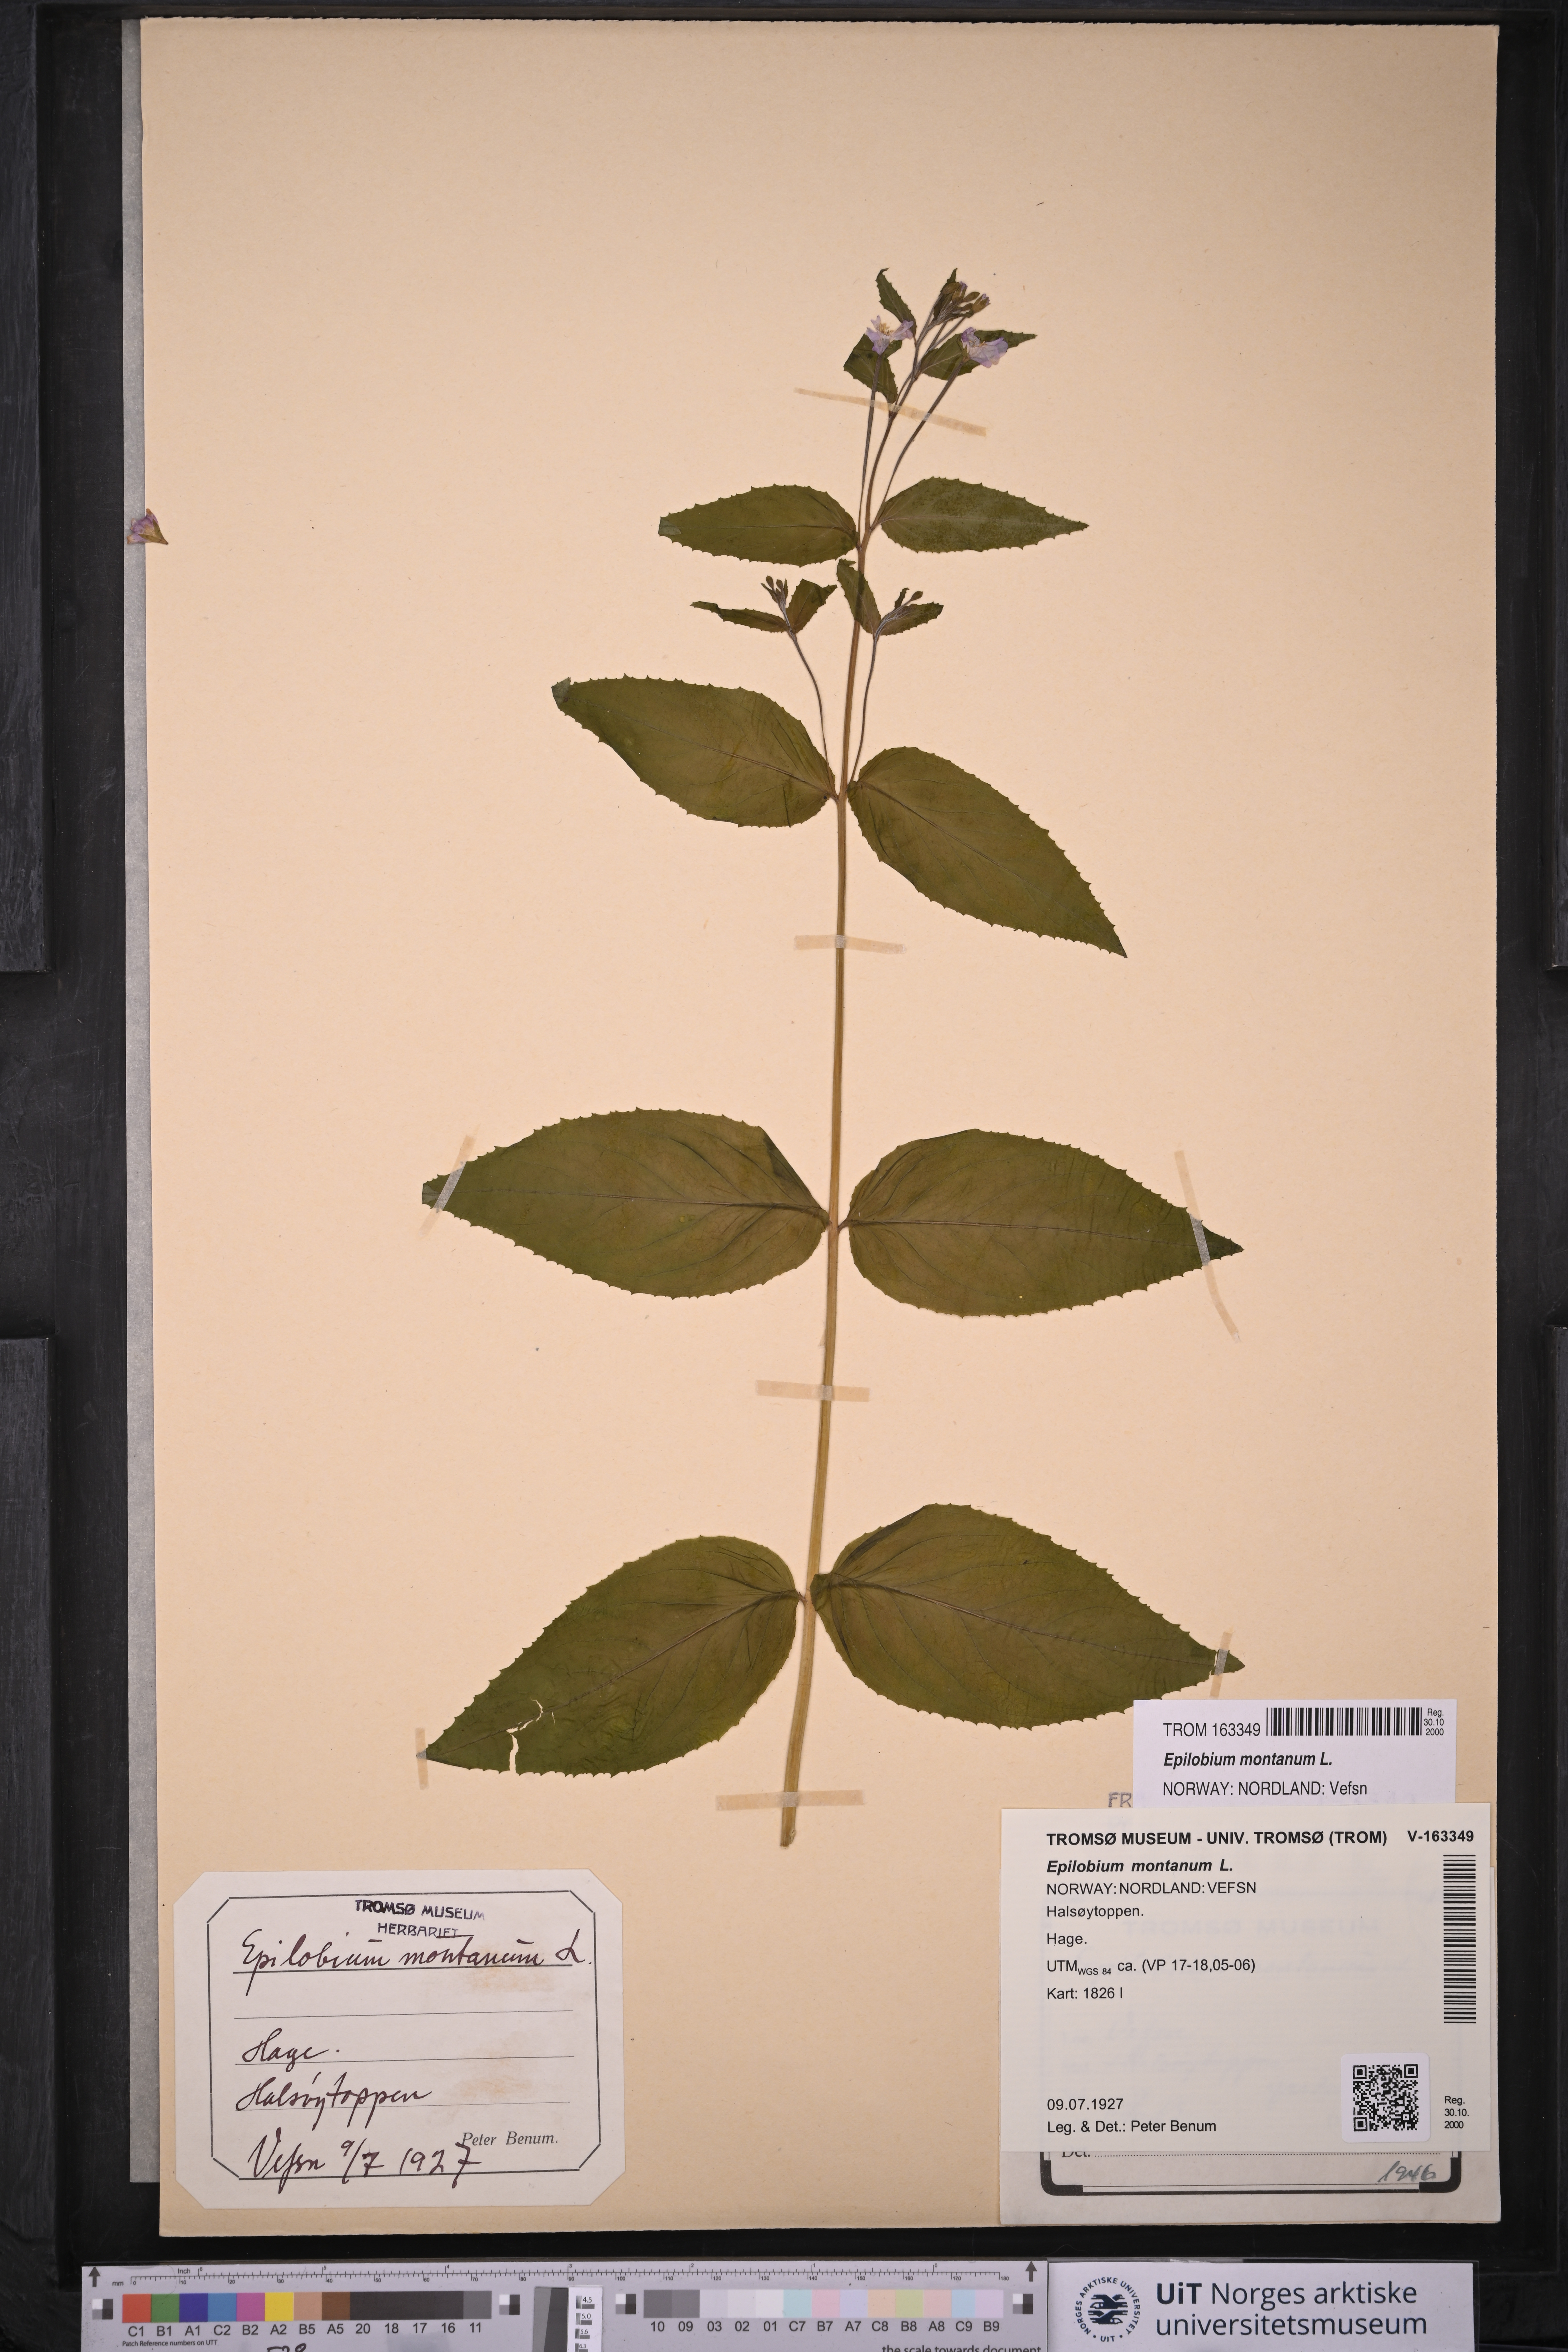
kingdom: Plantae
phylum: Tracheophyta
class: Magnoliopsida
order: Myrtales
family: Onagraceae
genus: Epilobium
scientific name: Epilobium montanum
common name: Broad-leaved willowherb
